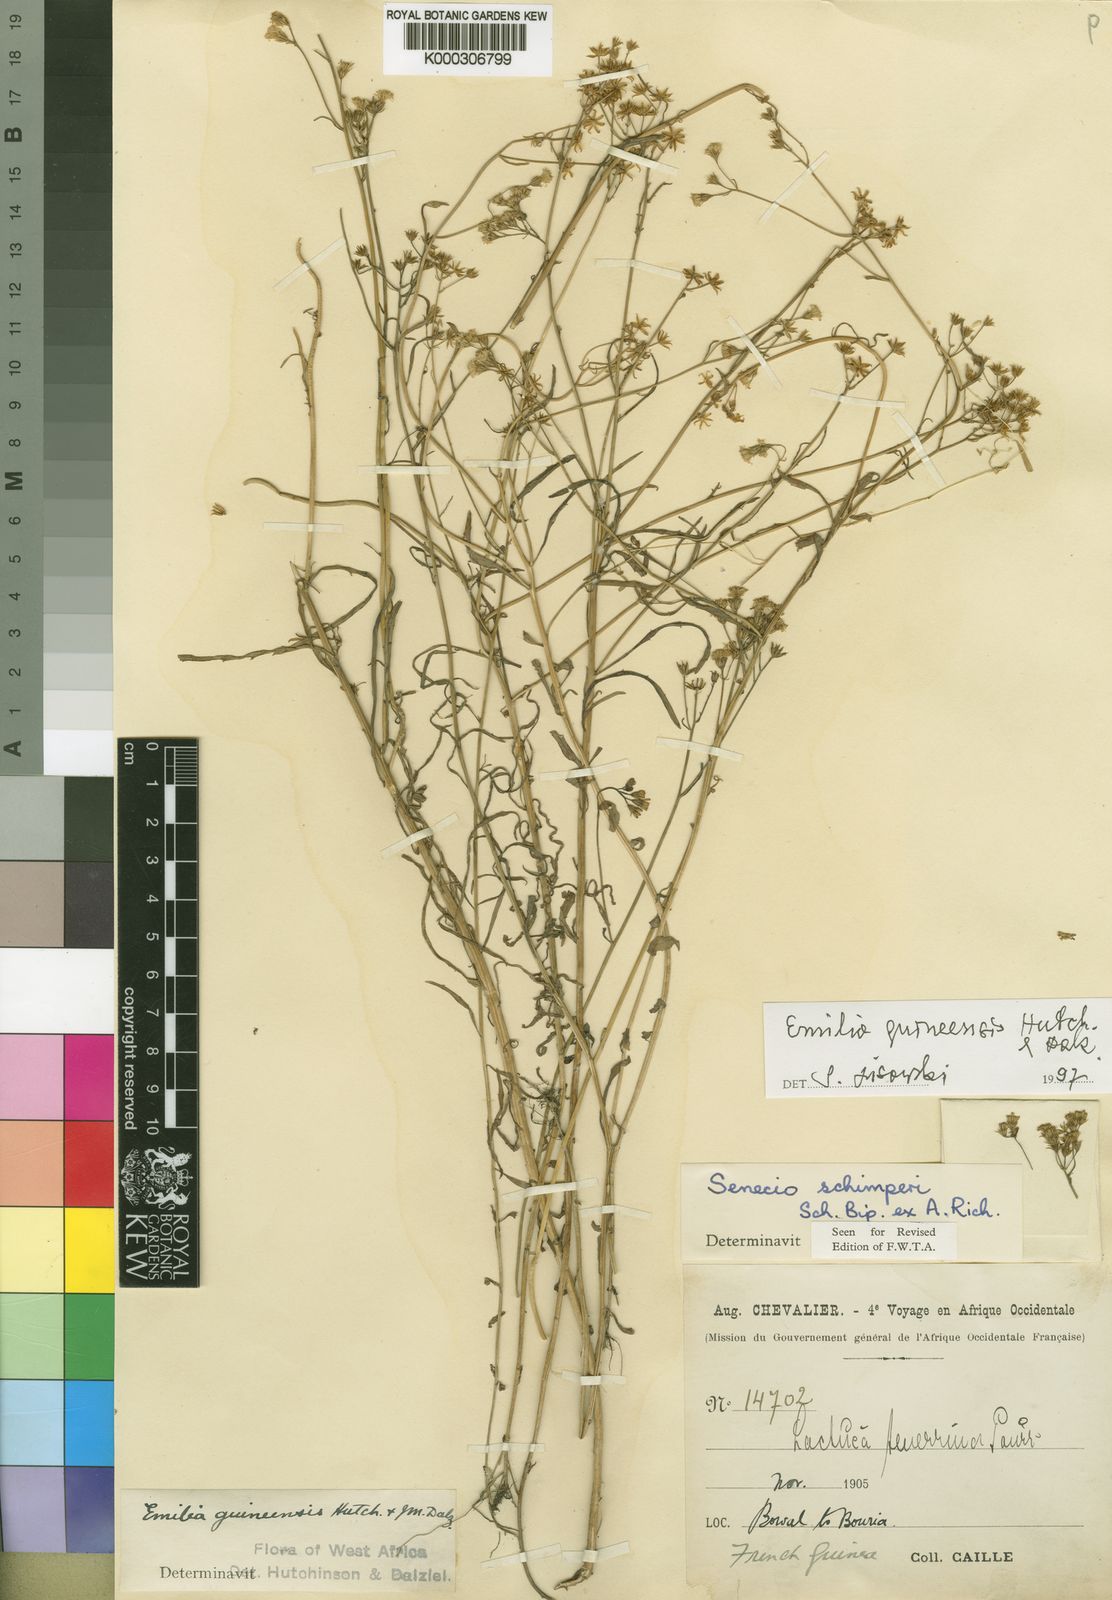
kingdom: Plantae
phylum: Tracheophyta
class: Magnoliopsida
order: Asterales
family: Asteraceae
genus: Emilia
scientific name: Emilia guineensis
